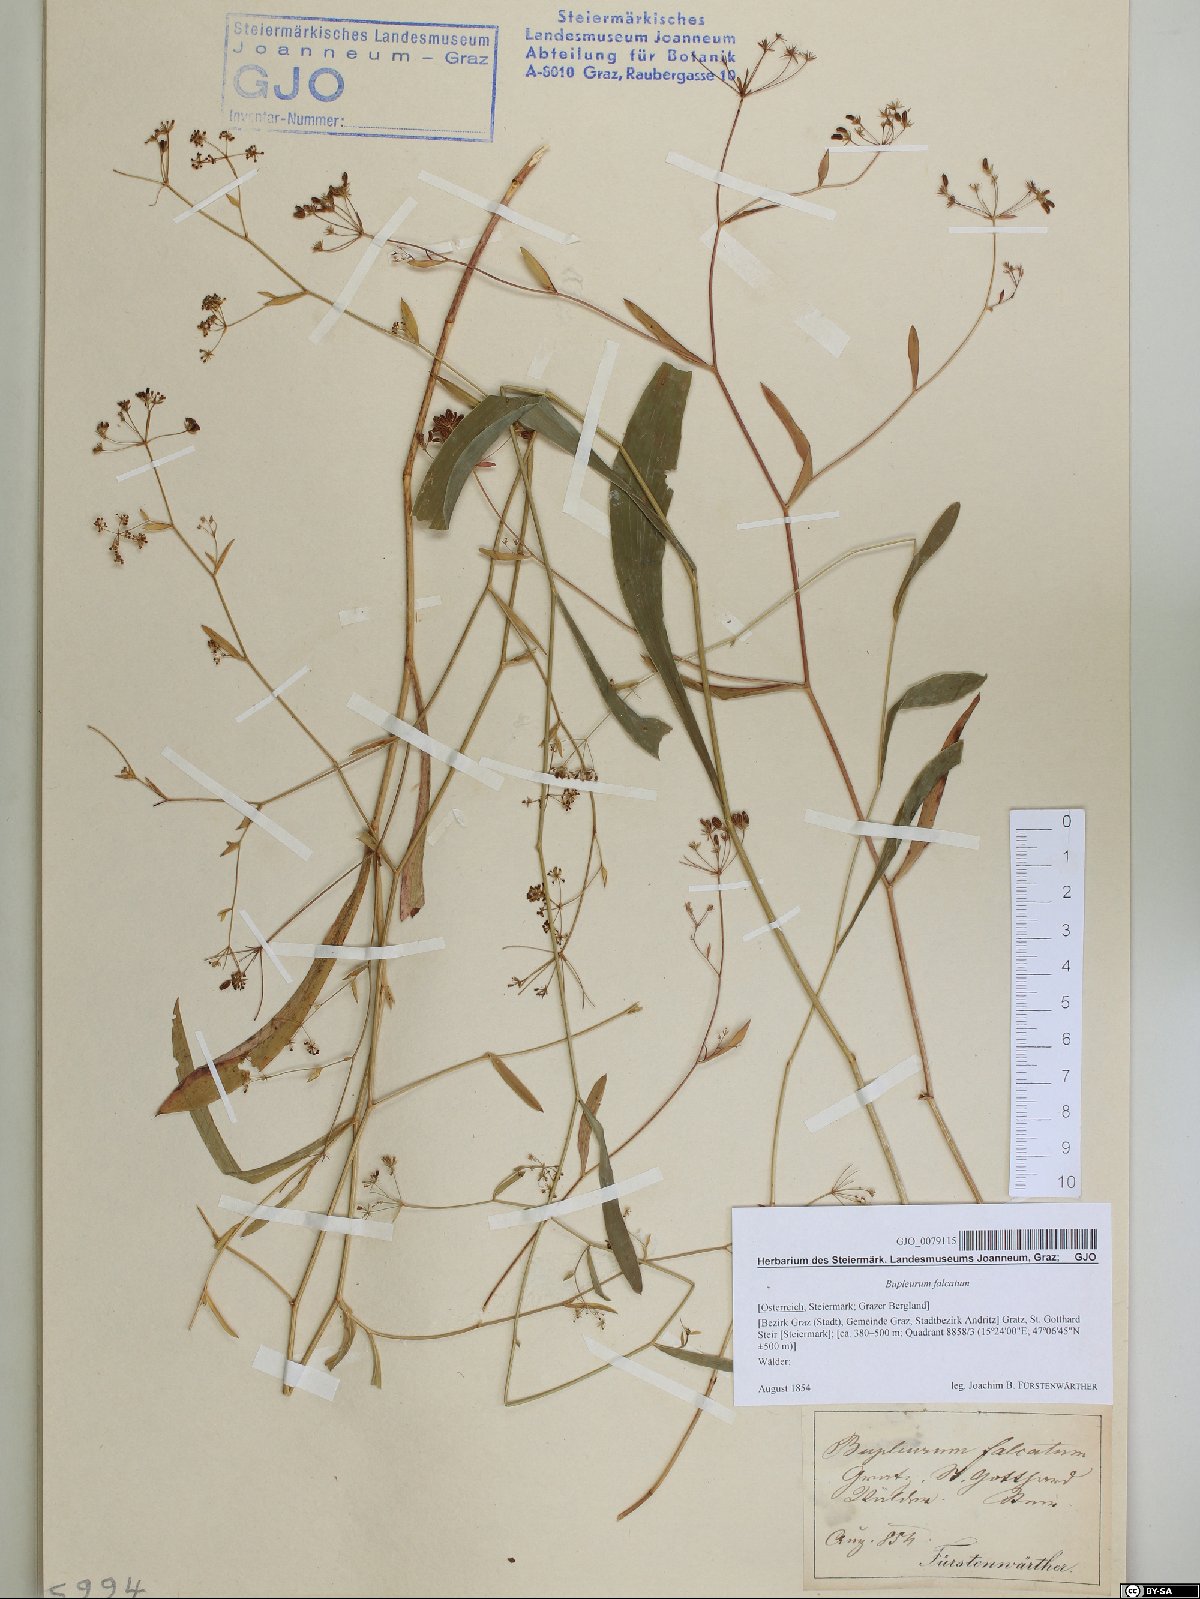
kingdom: Plantae
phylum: Tracheophyta
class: Magnoliopsida
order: Apiales
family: Apiaceae
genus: Bupleurum
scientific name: Bupleurum falcatum
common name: Sickle-leaved hare's-ear
